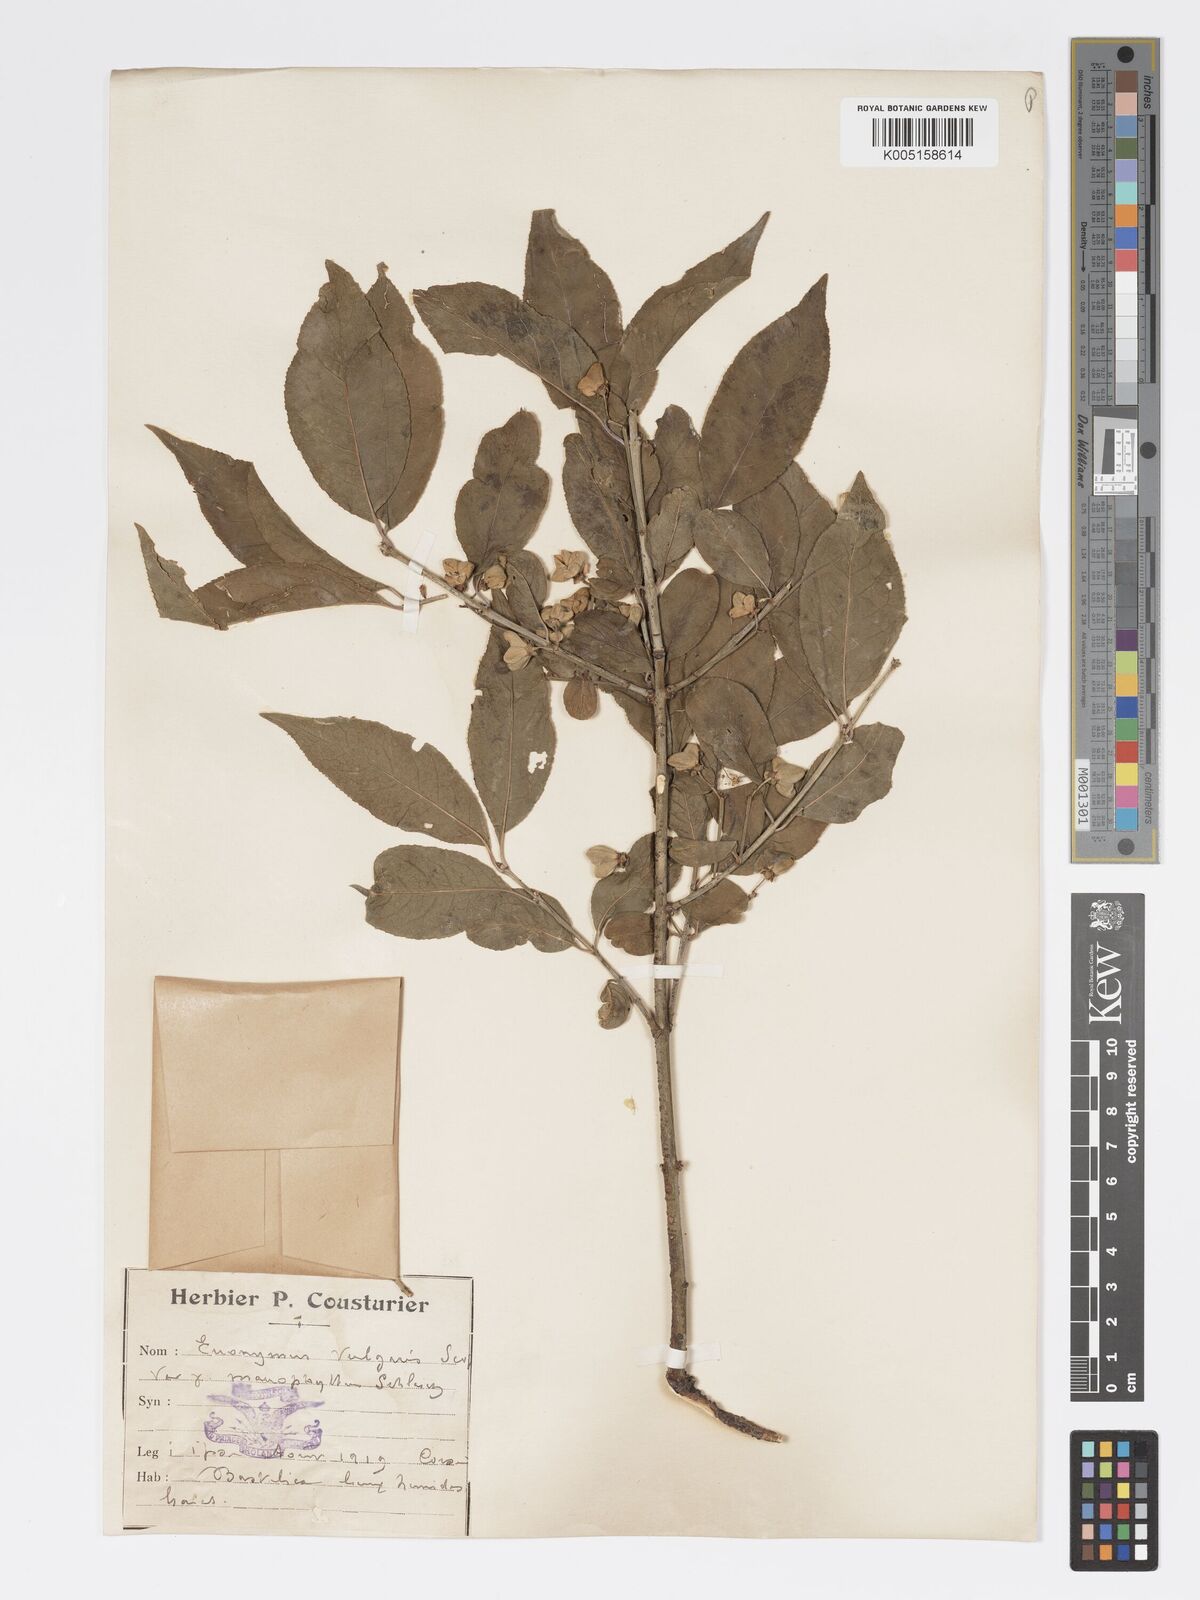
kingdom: Plantae
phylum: Tracheophyta
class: Magnoliopsida
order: Celastrales
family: Celastraceae
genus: Euonymus
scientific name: Euonymus europaeus
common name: Spindle
